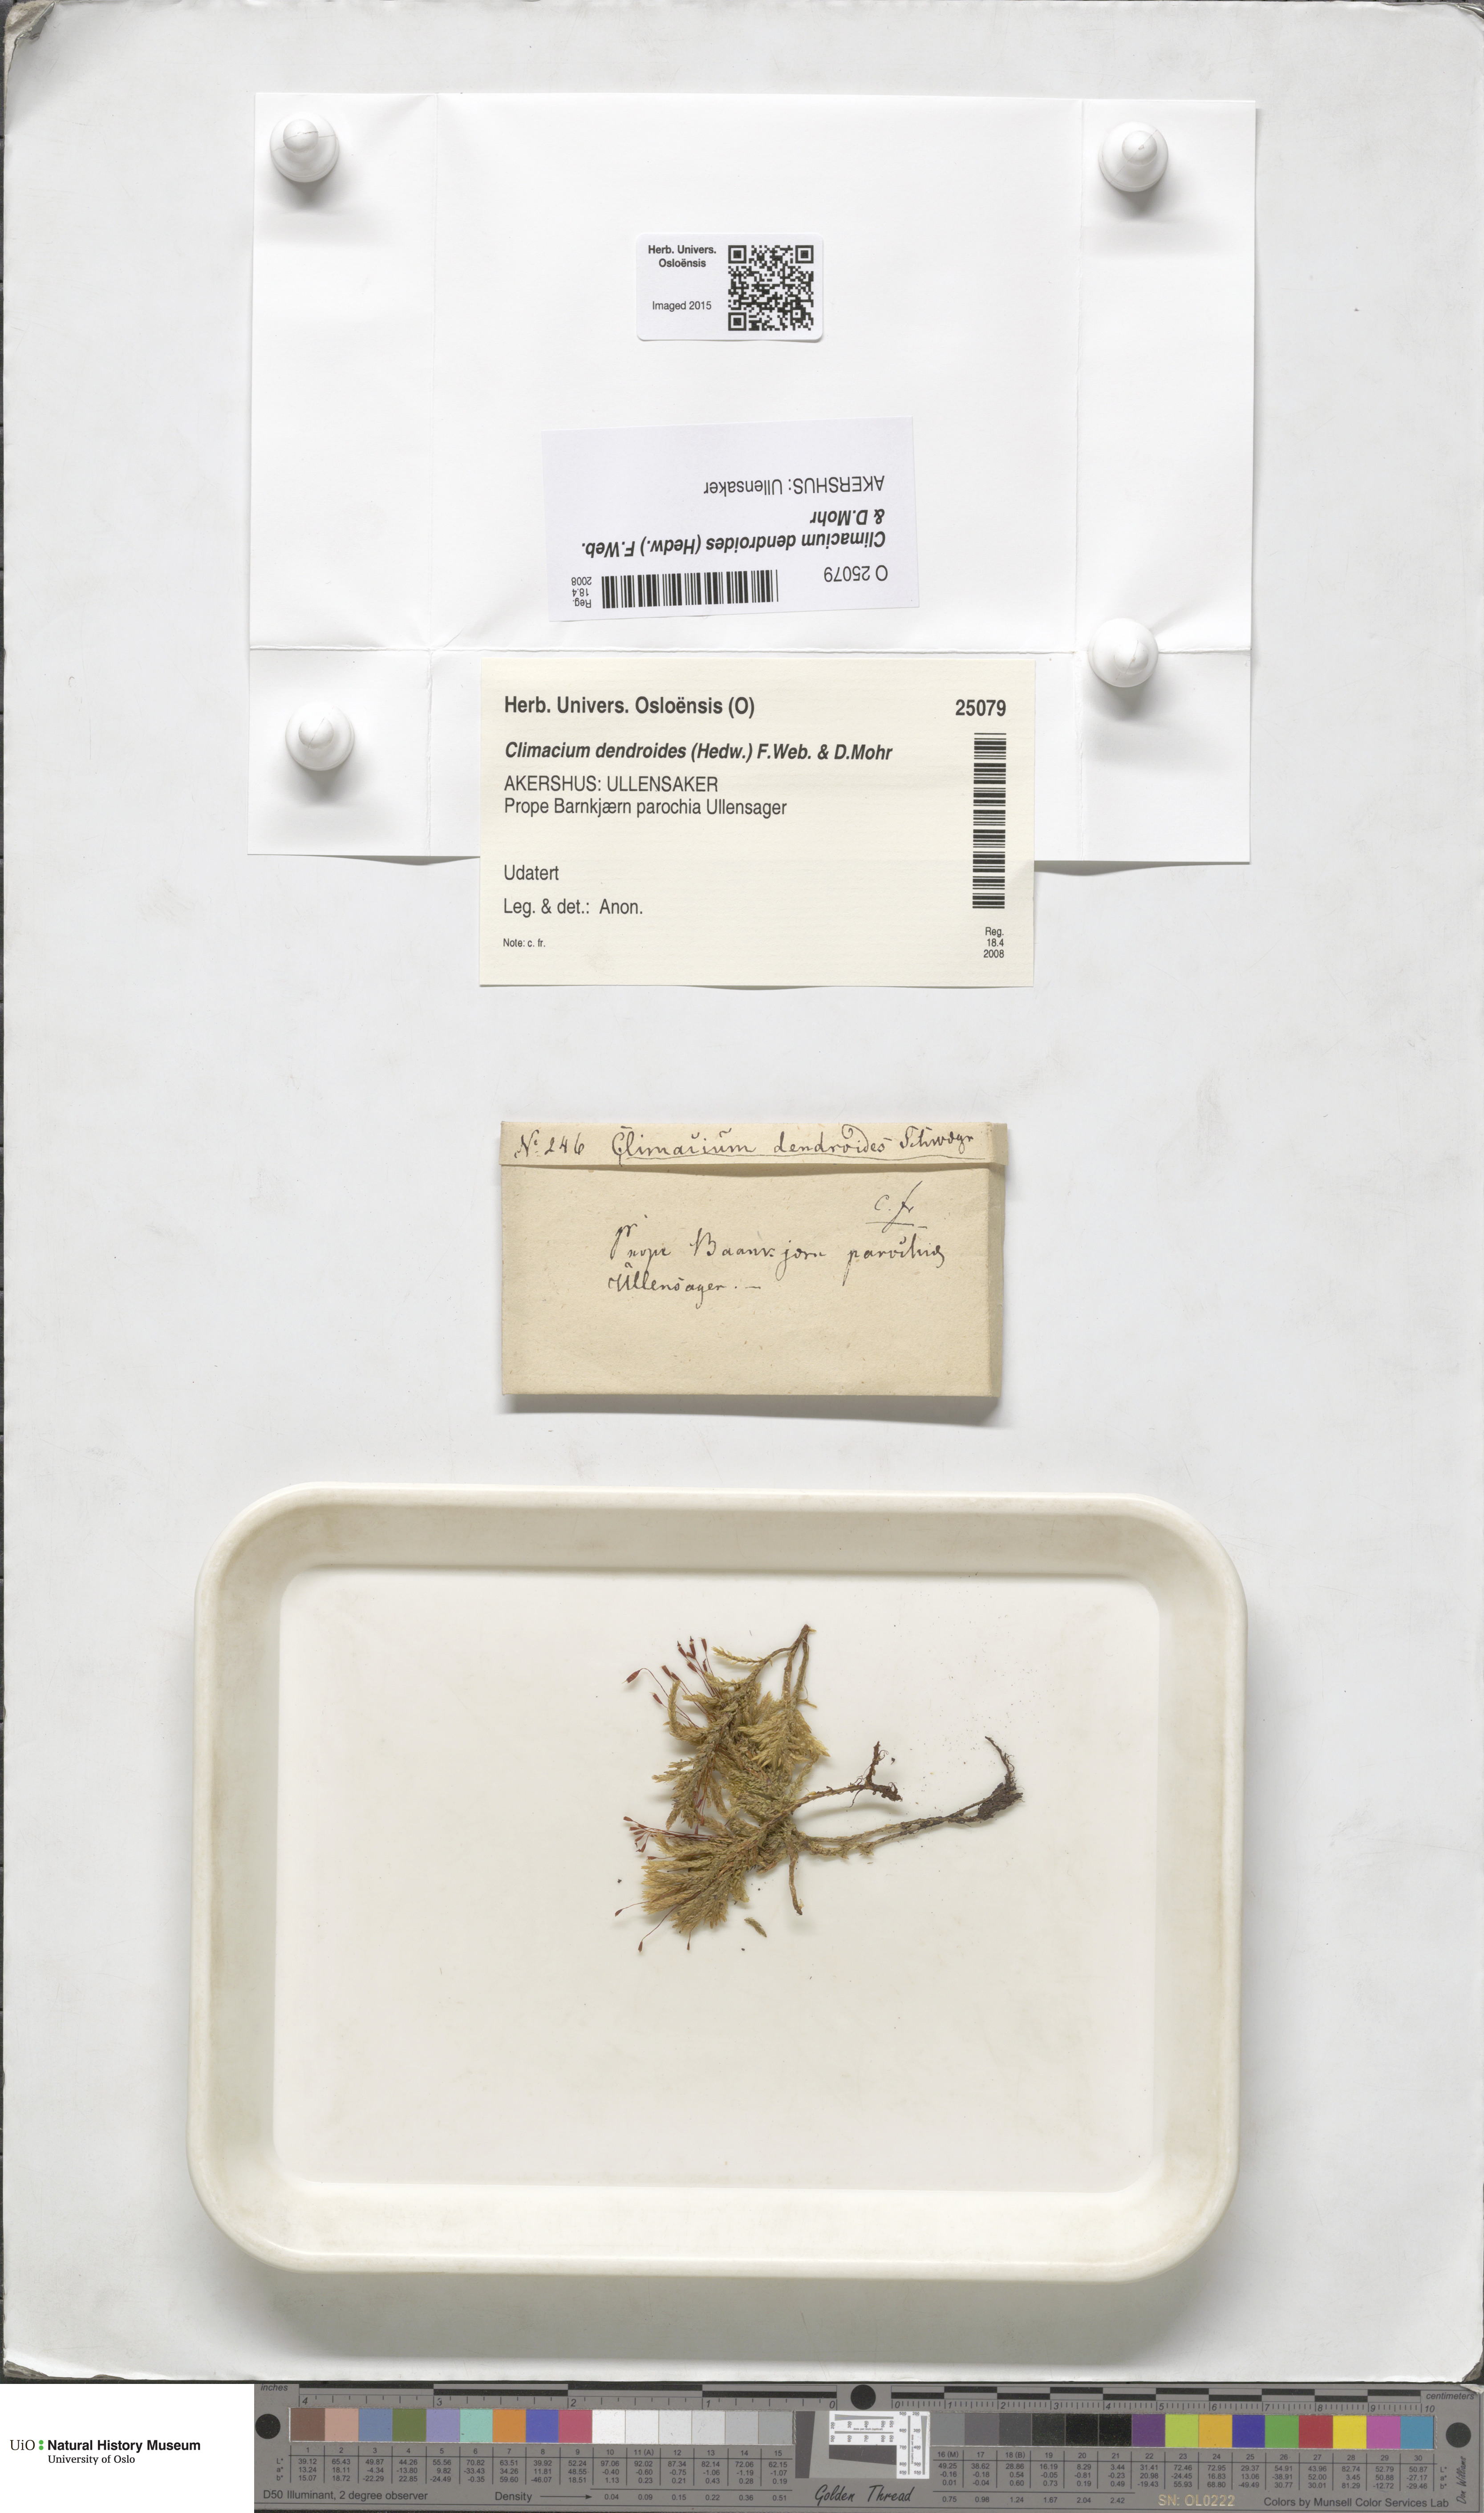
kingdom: Plantae
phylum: Bryophyta
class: Bryopsida
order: Hypnales
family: Climaciaceae
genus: Climacium
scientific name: Climacium dendroides
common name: Northern tree moss
